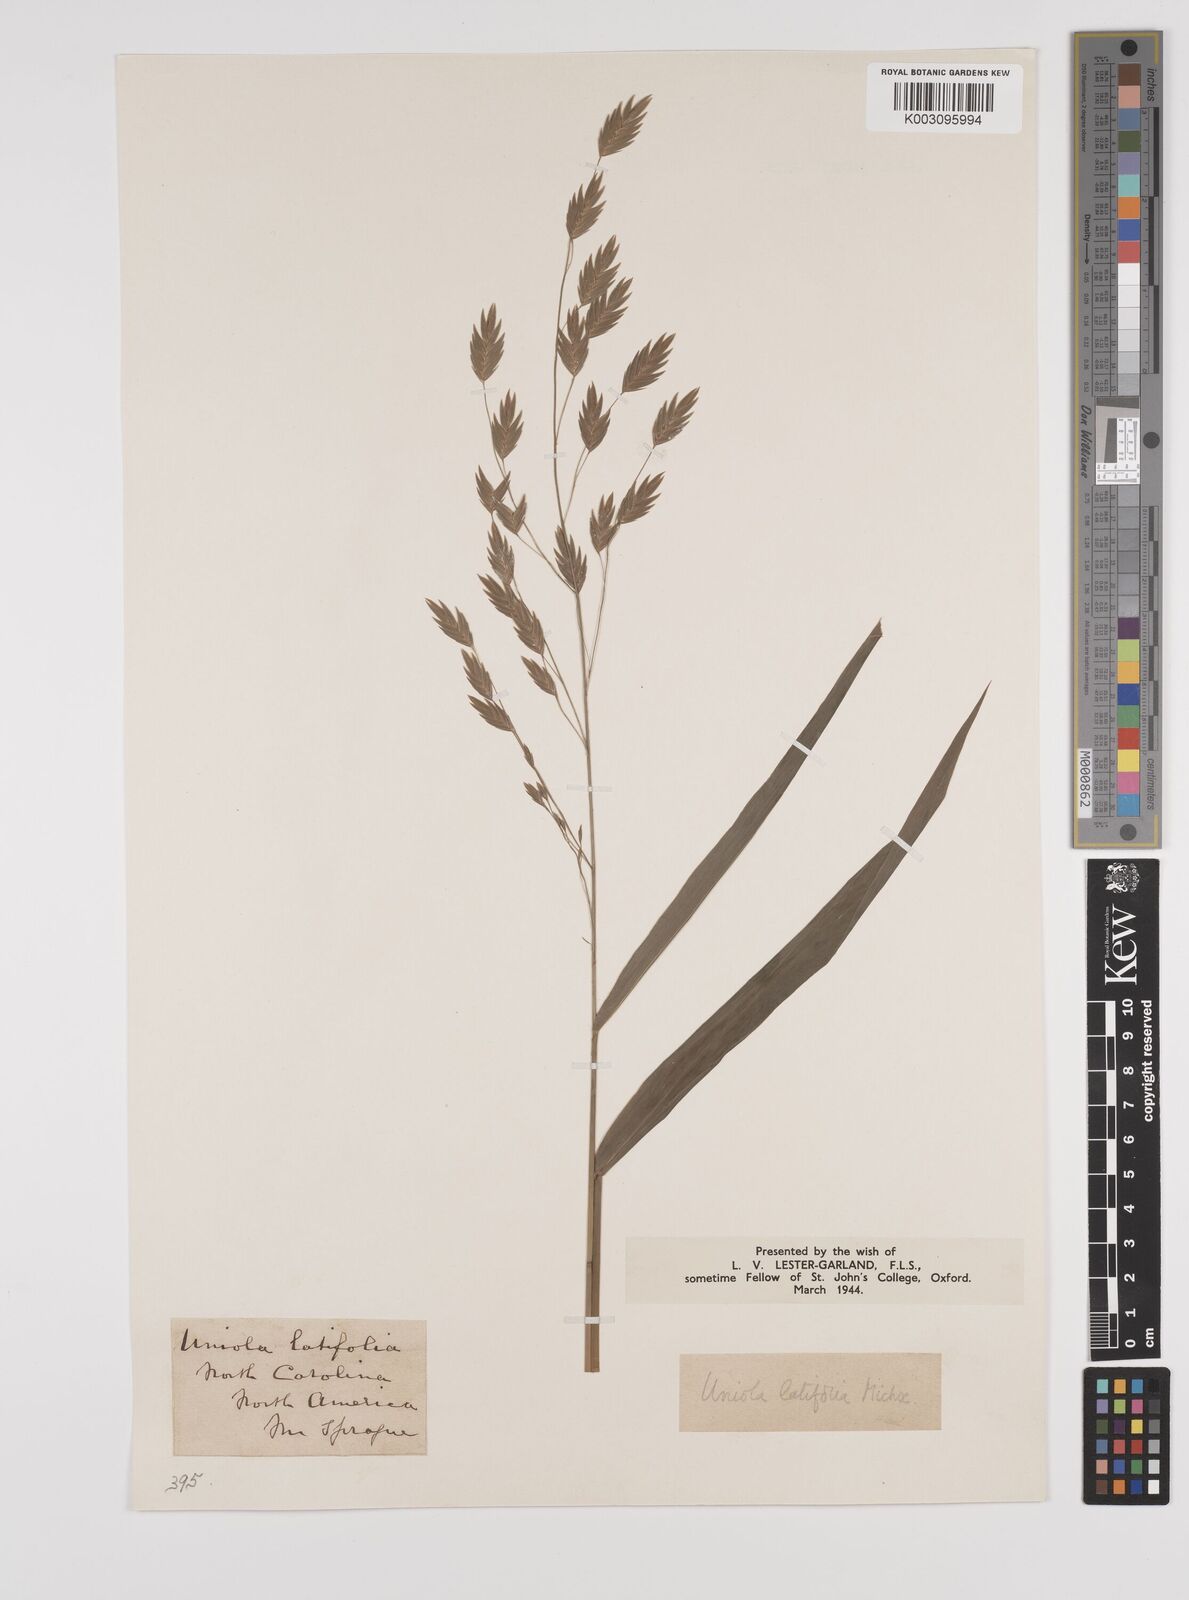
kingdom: Plantae
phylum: Tracheophyta
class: Liliopsida
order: Poales
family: Poaceae
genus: Chasmanthium
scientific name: Chasmanthium latifolium
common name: Broad-leaved chasmanthium
